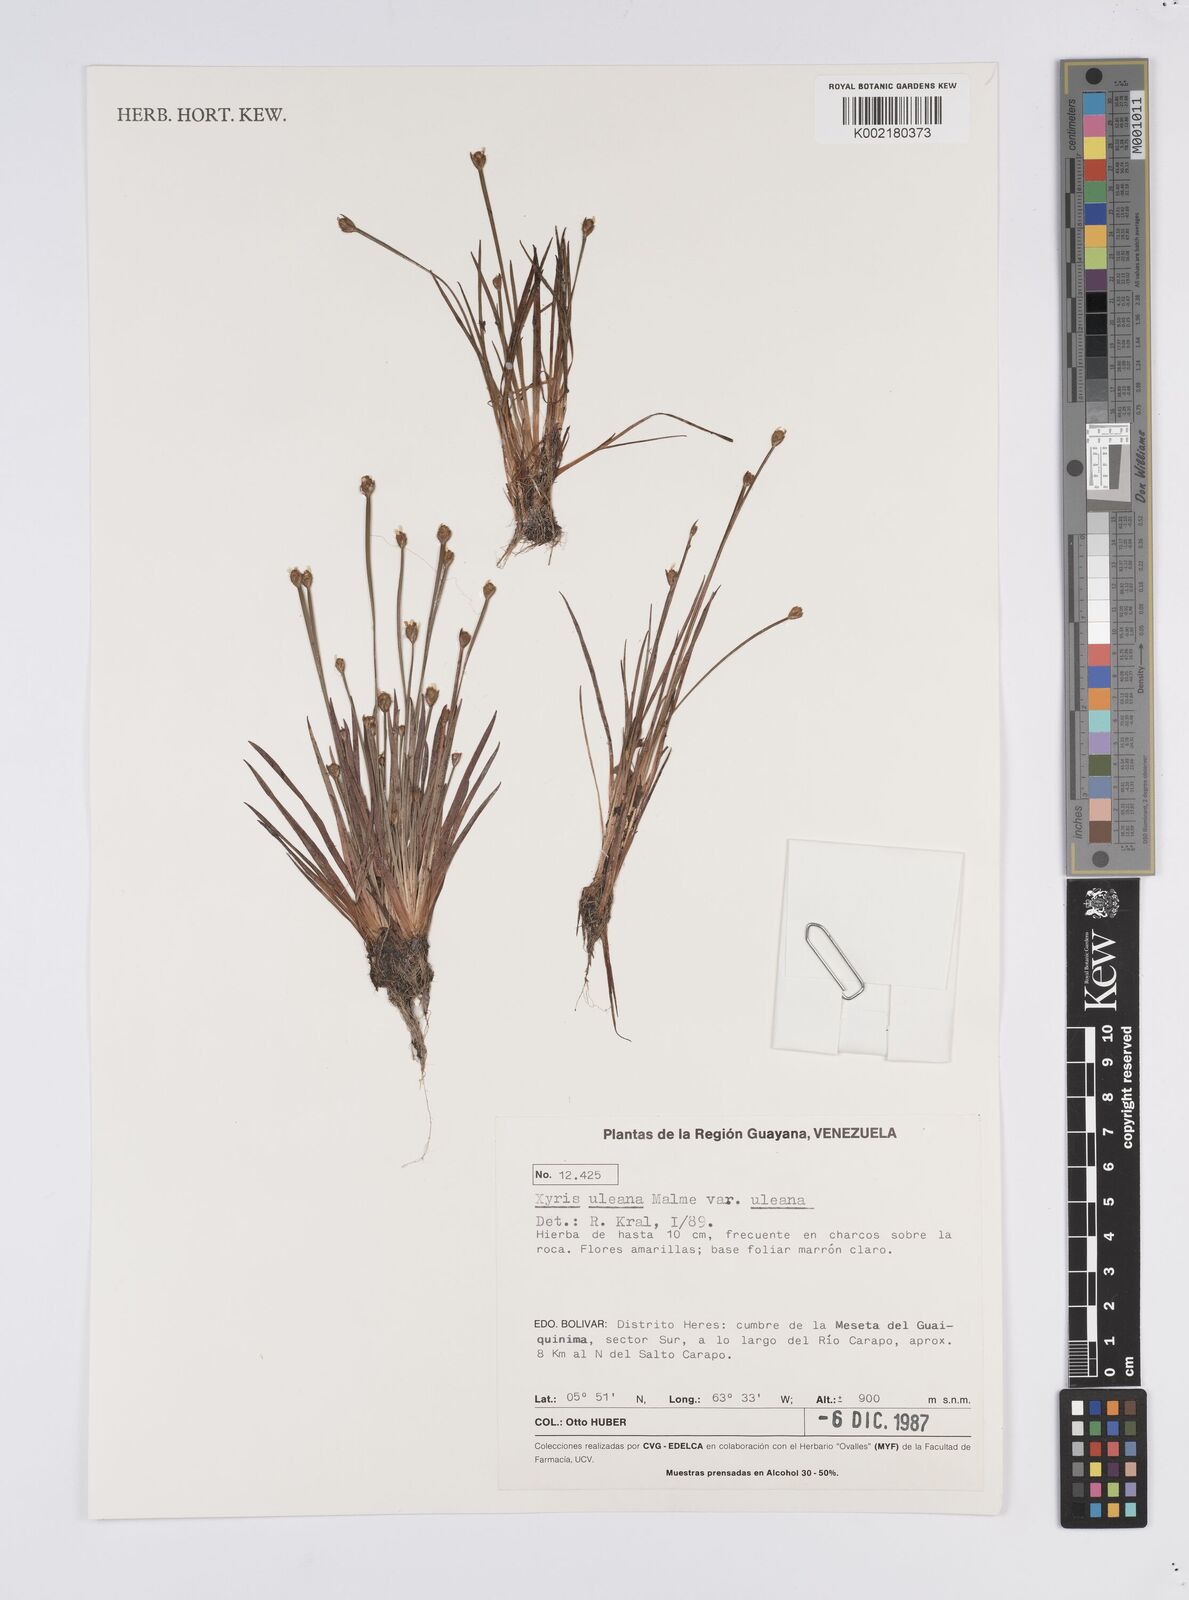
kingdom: Plantae
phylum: Tracheophyta
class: Liliopsida
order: Poales
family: Xyridaceae
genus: Xyris
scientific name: Xyris uleana
